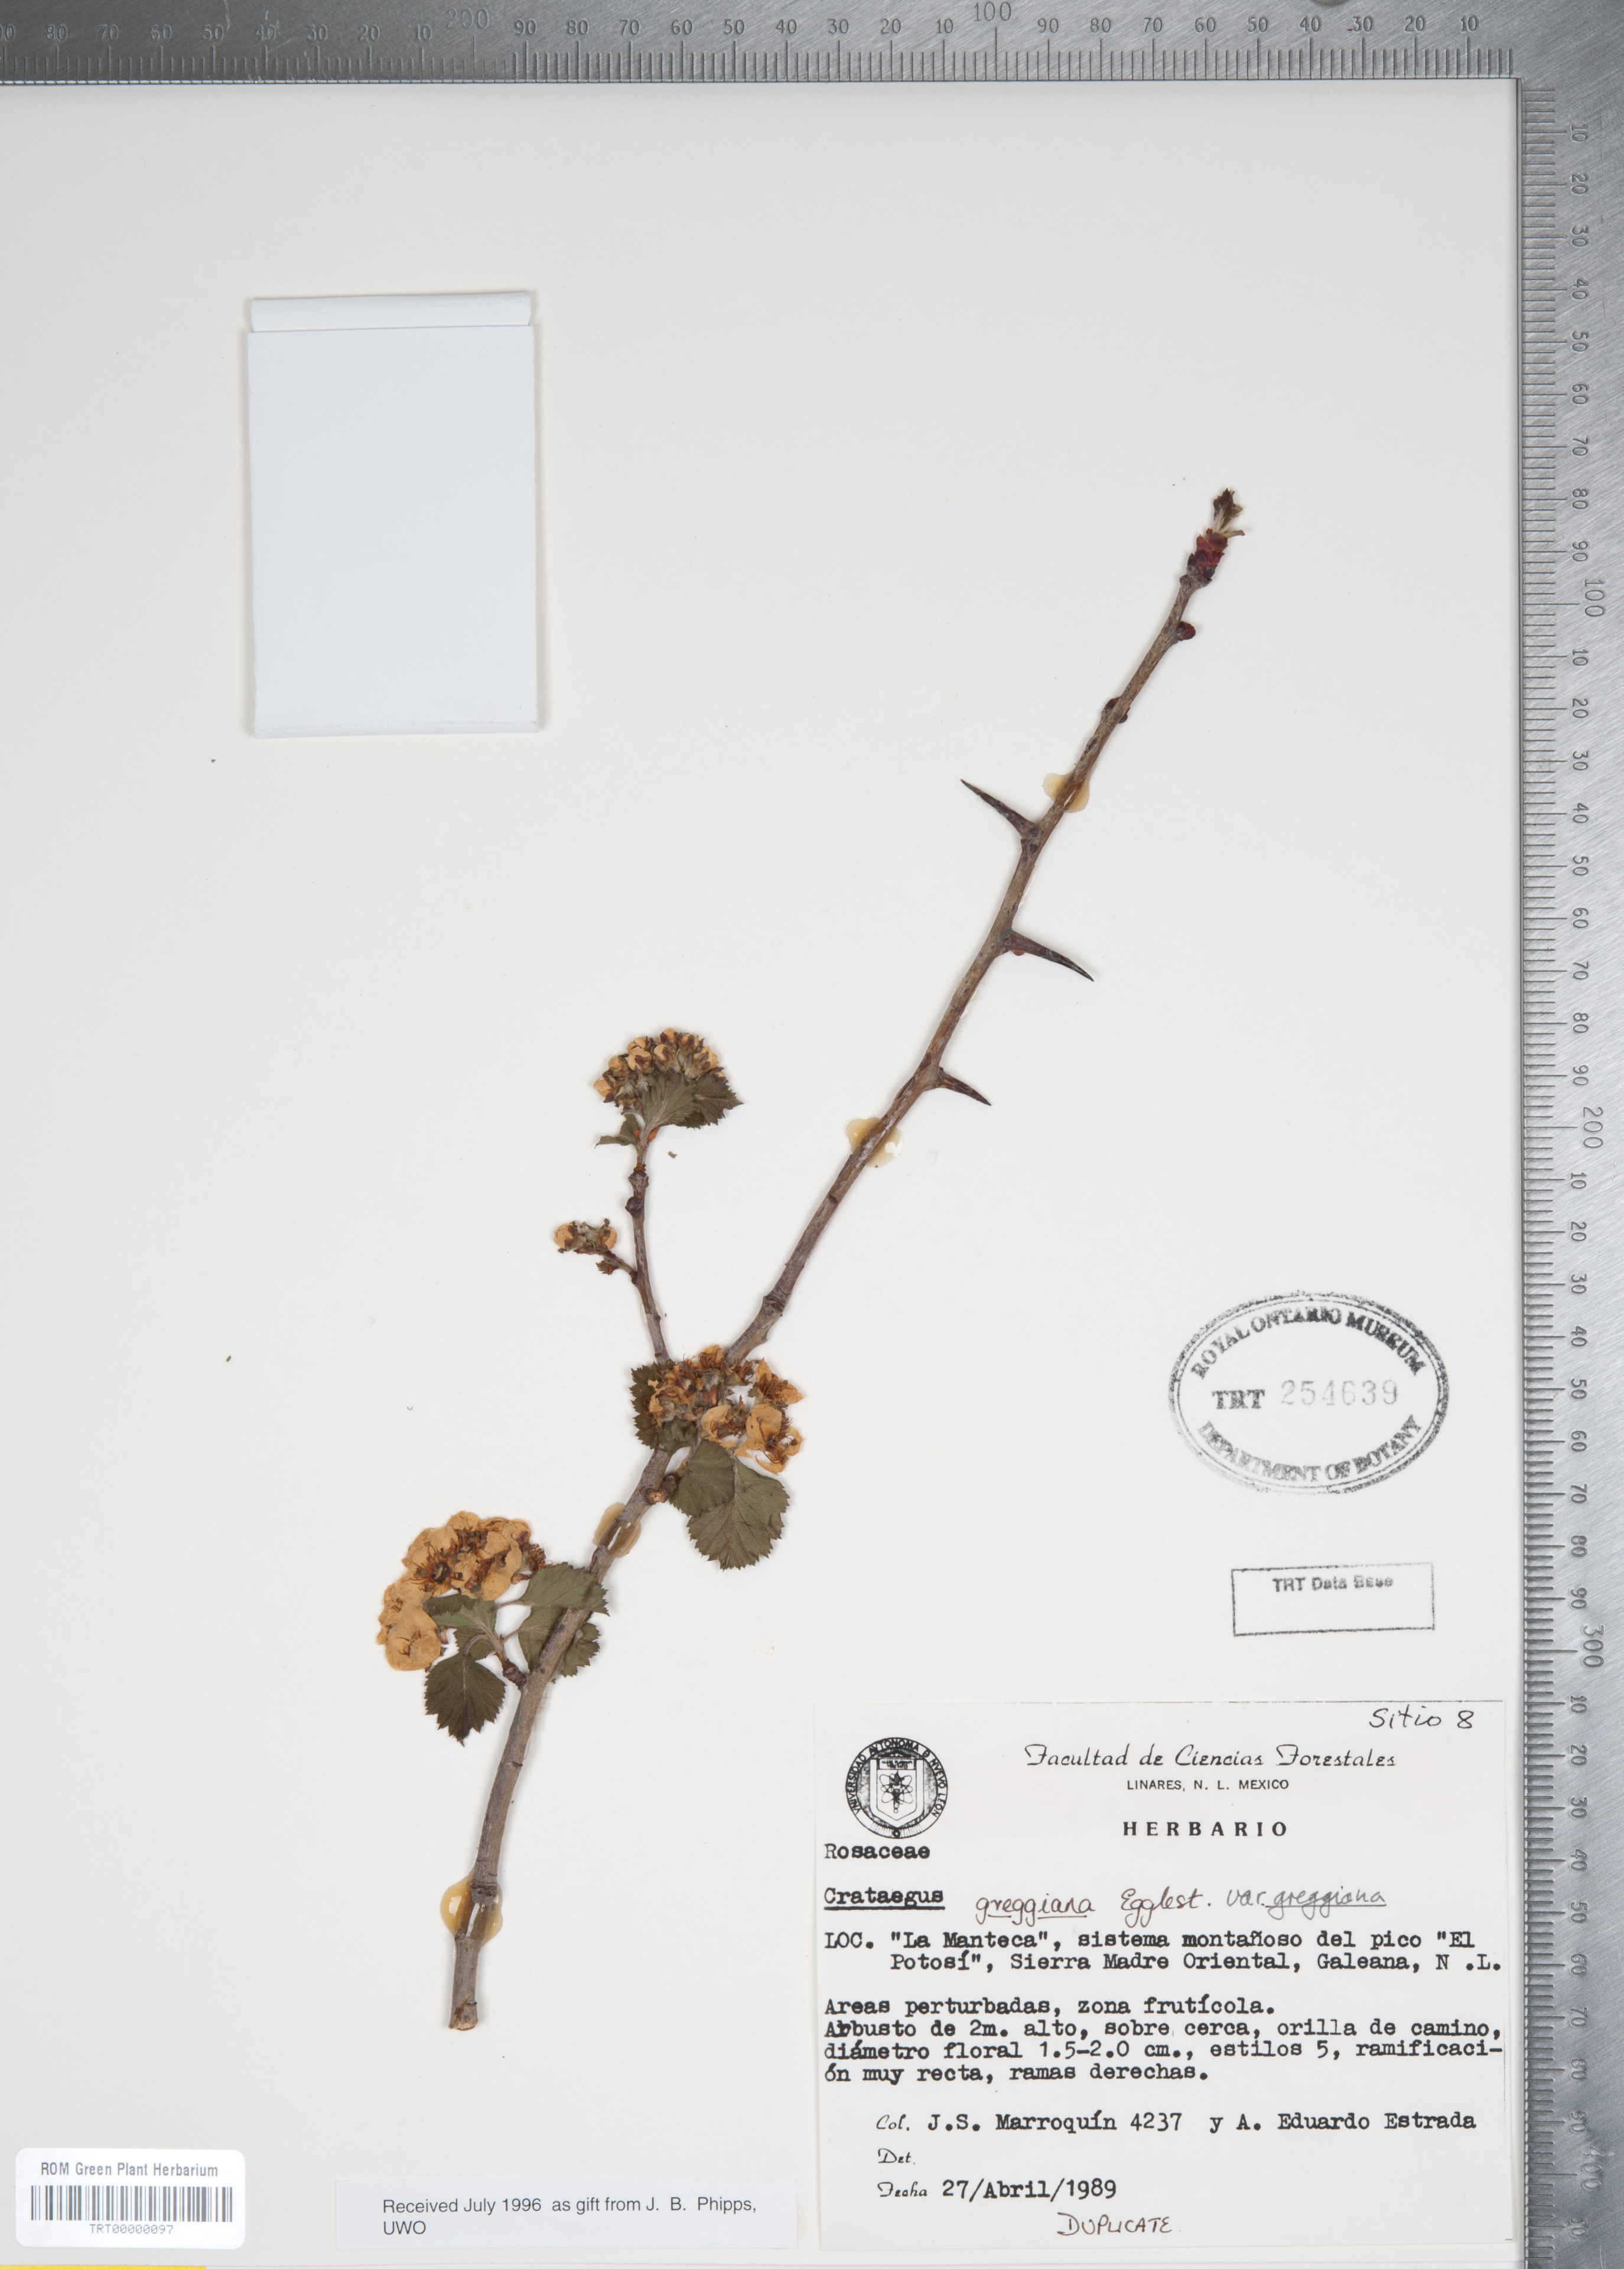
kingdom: Plantae
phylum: Tracheophyta
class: Magnoliopsida
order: Rosales
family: Rosaceae
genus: Crataegus
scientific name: Crataegus greggiana
